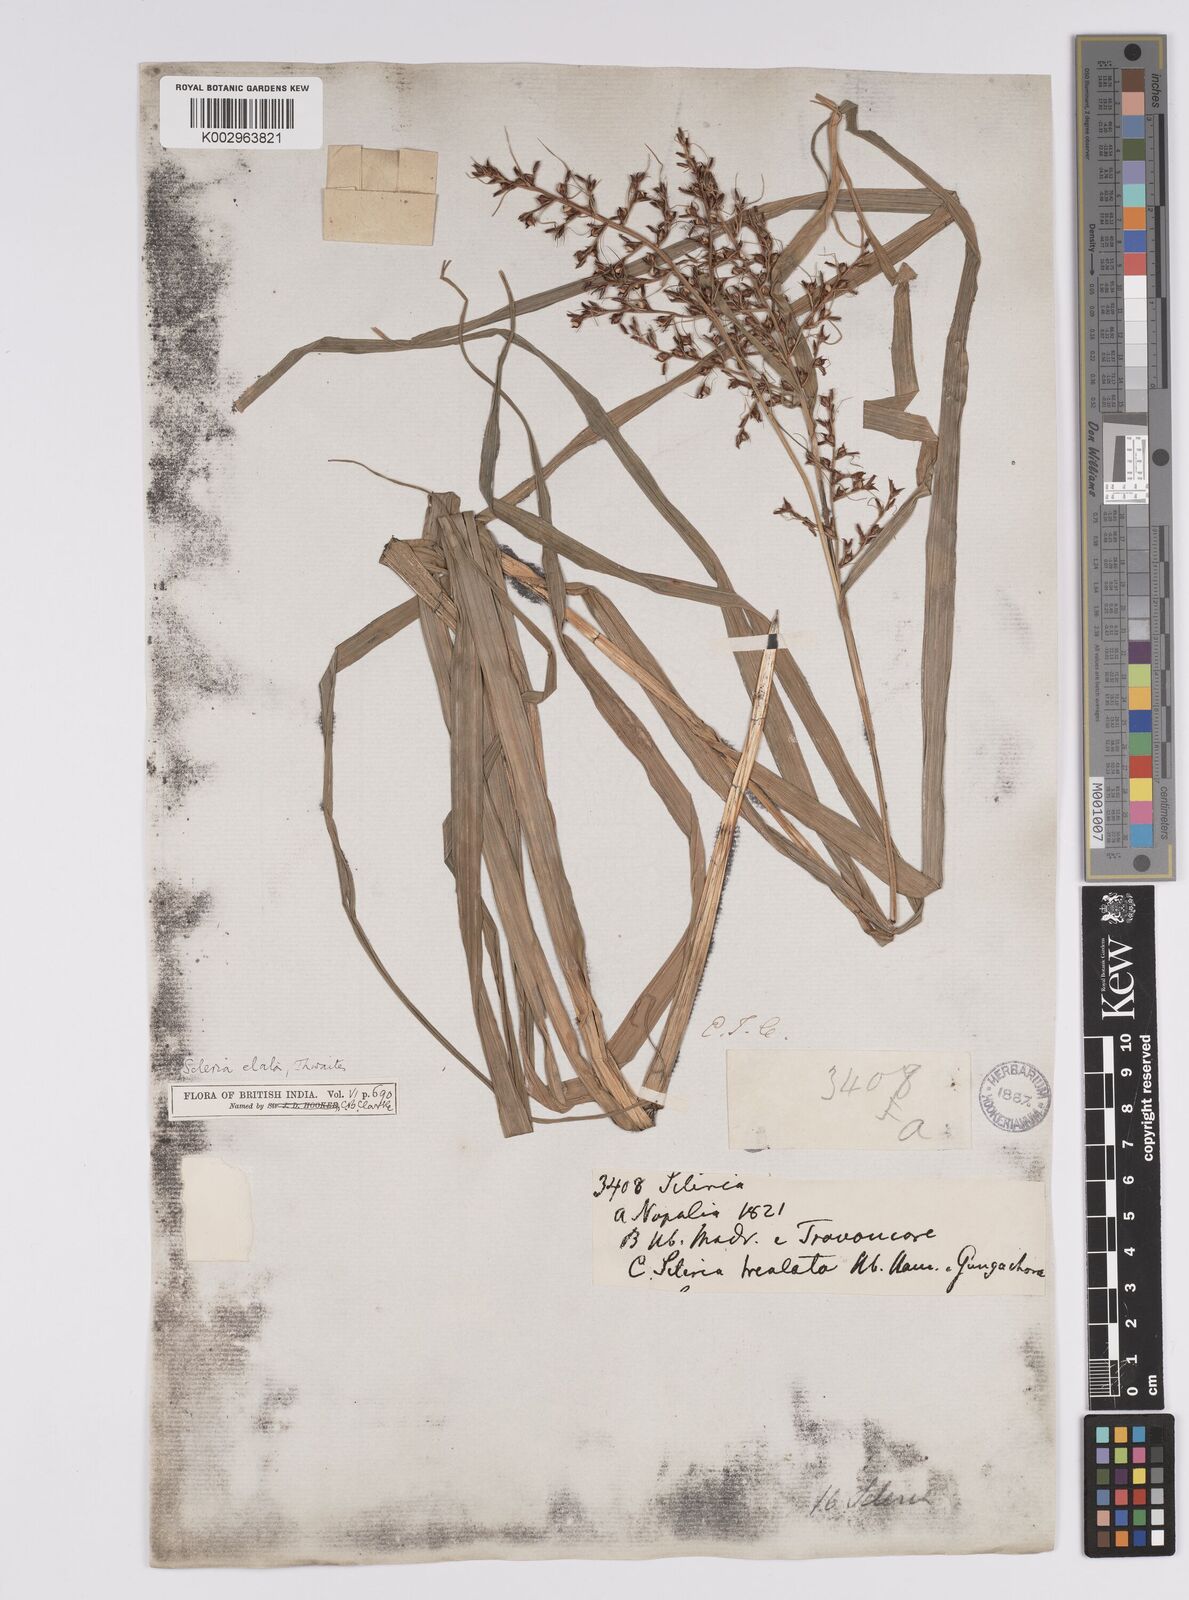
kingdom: Plantae
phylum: Tracheophyta
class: Liliopsida
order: Poales
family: Cyperaceae
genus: Scleria
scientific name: Scleria terrestris
